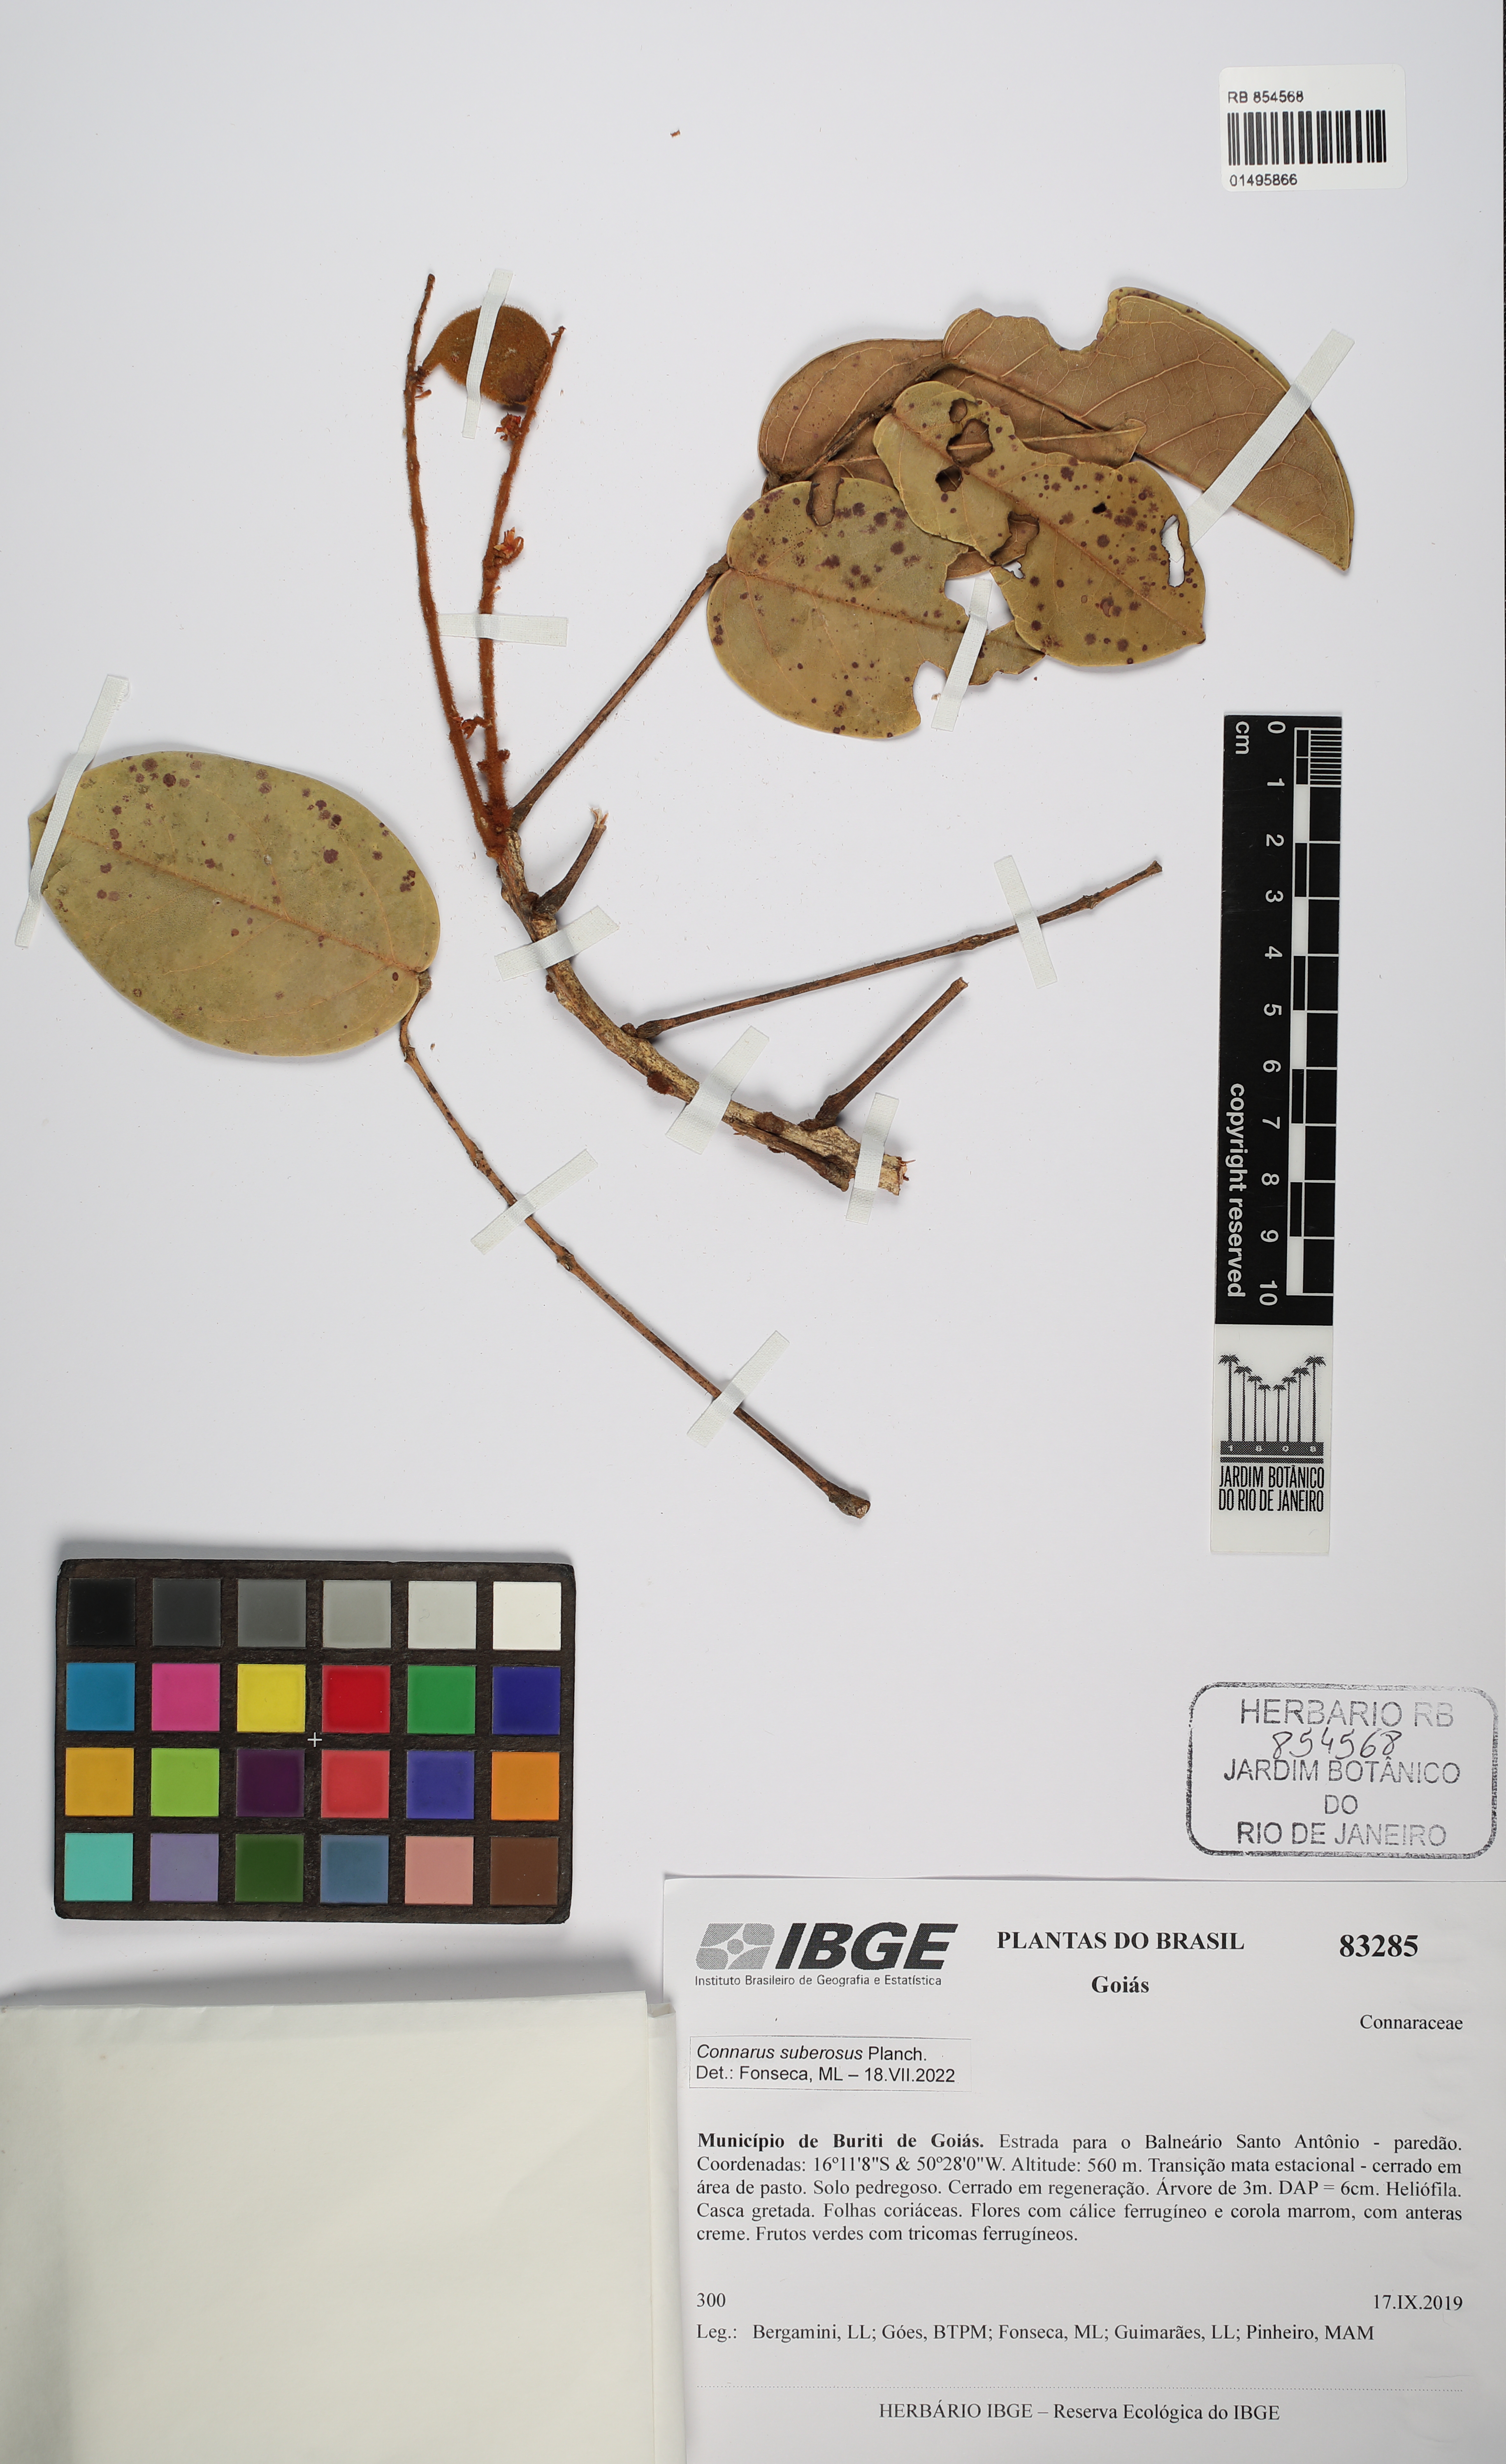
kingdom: Plantae
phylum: Tracheophyta
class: Magnoliopsida
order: Oxalidales
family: Connaraceae
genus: Connarus
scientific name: Connarus suberosus
